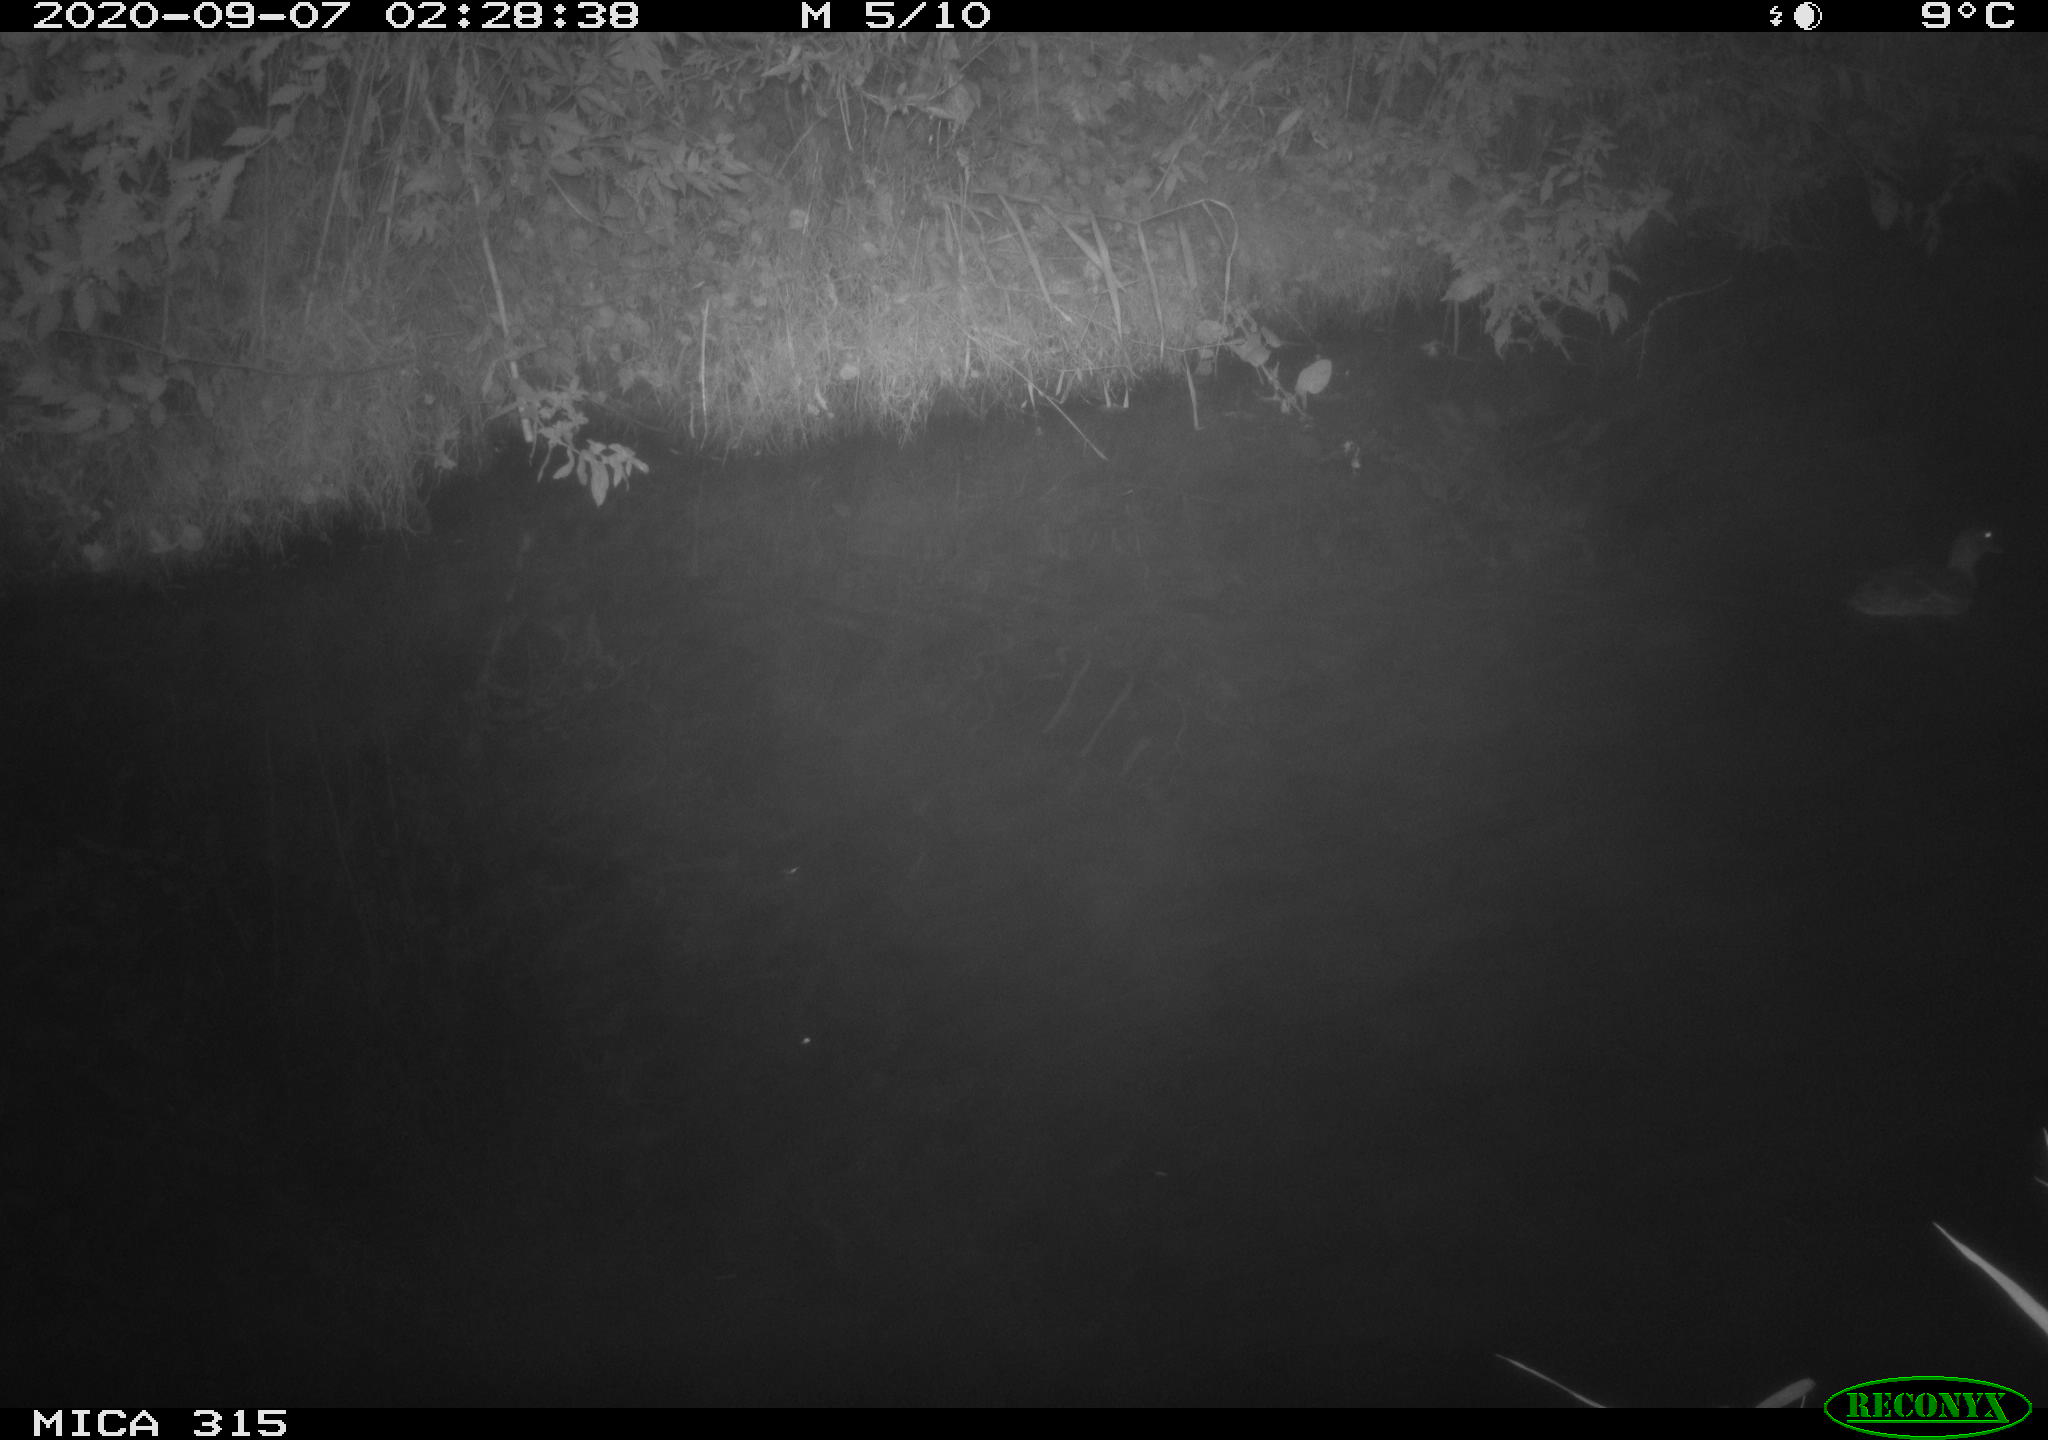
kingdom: Animalia
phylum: Chordata
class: Aves
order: Anseriformes
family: Anatidae
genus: Anas
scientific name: Anas platyrhynchos
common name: Mallard
